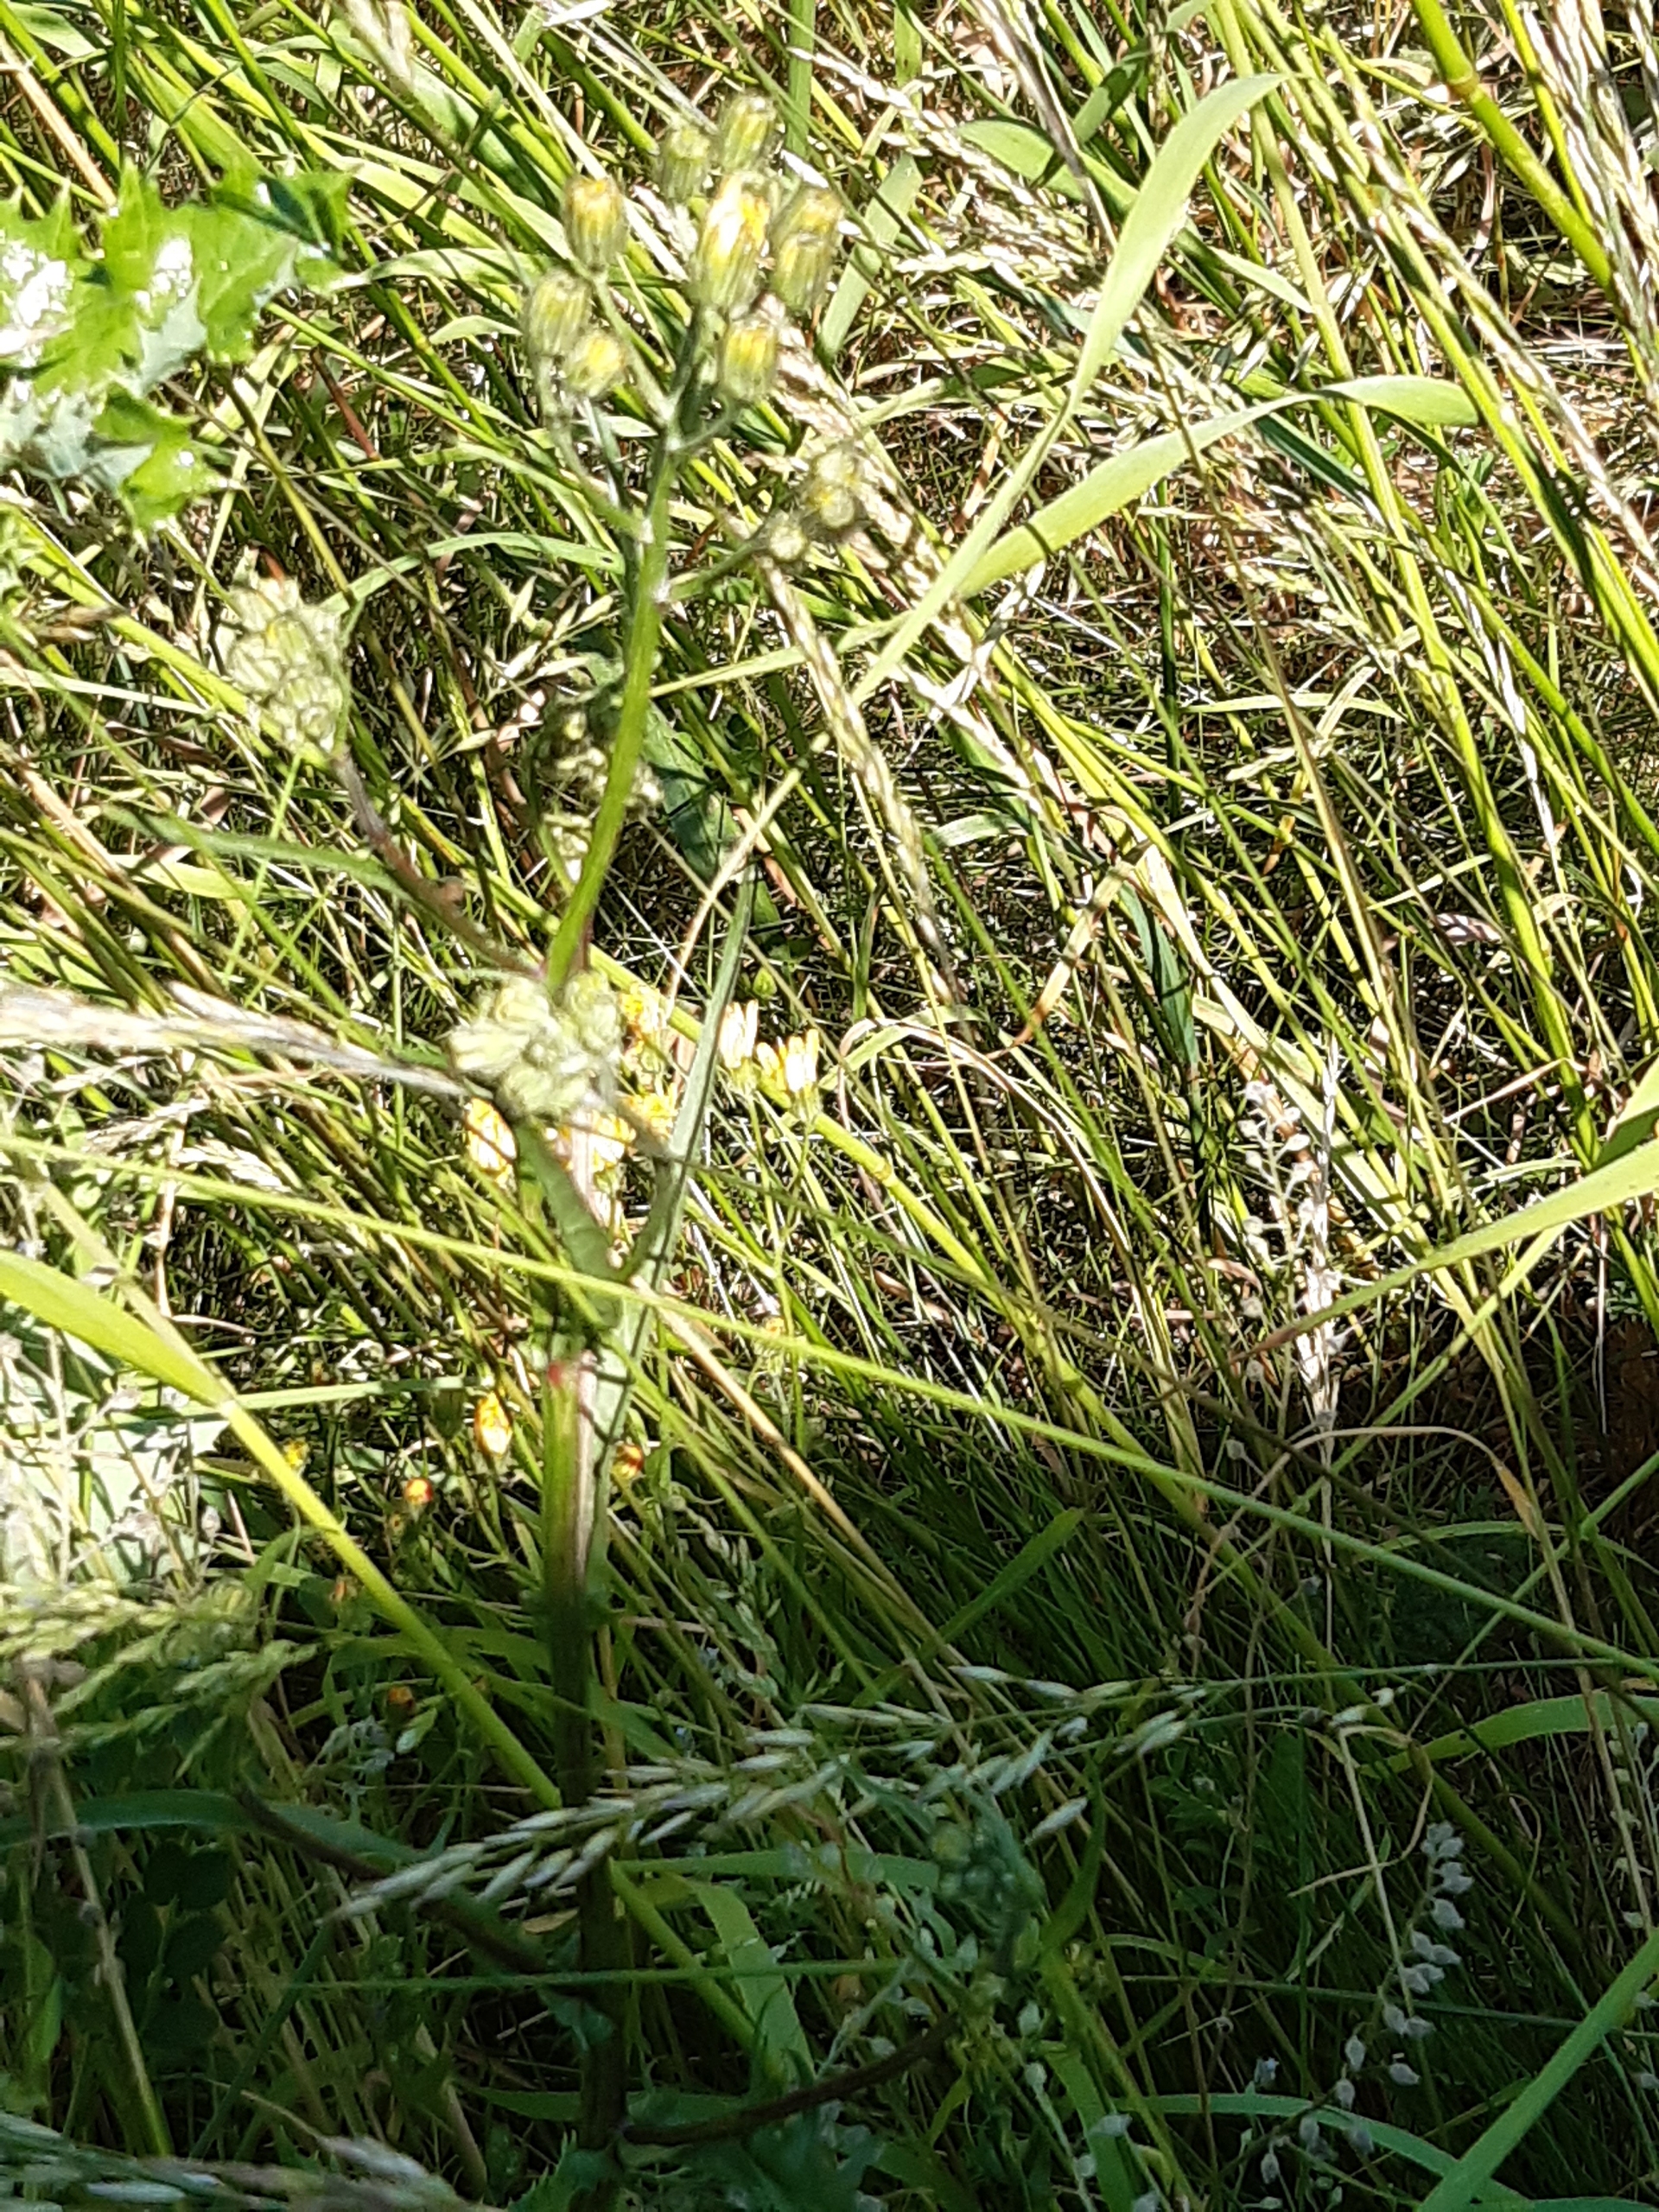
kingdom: Plantae
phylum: Tracheophyta
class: Magnoliopsida
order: Asterales
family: Asteraceae
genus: Crepis
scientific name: Crepis capillaris
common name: Grøn høgeskæg
